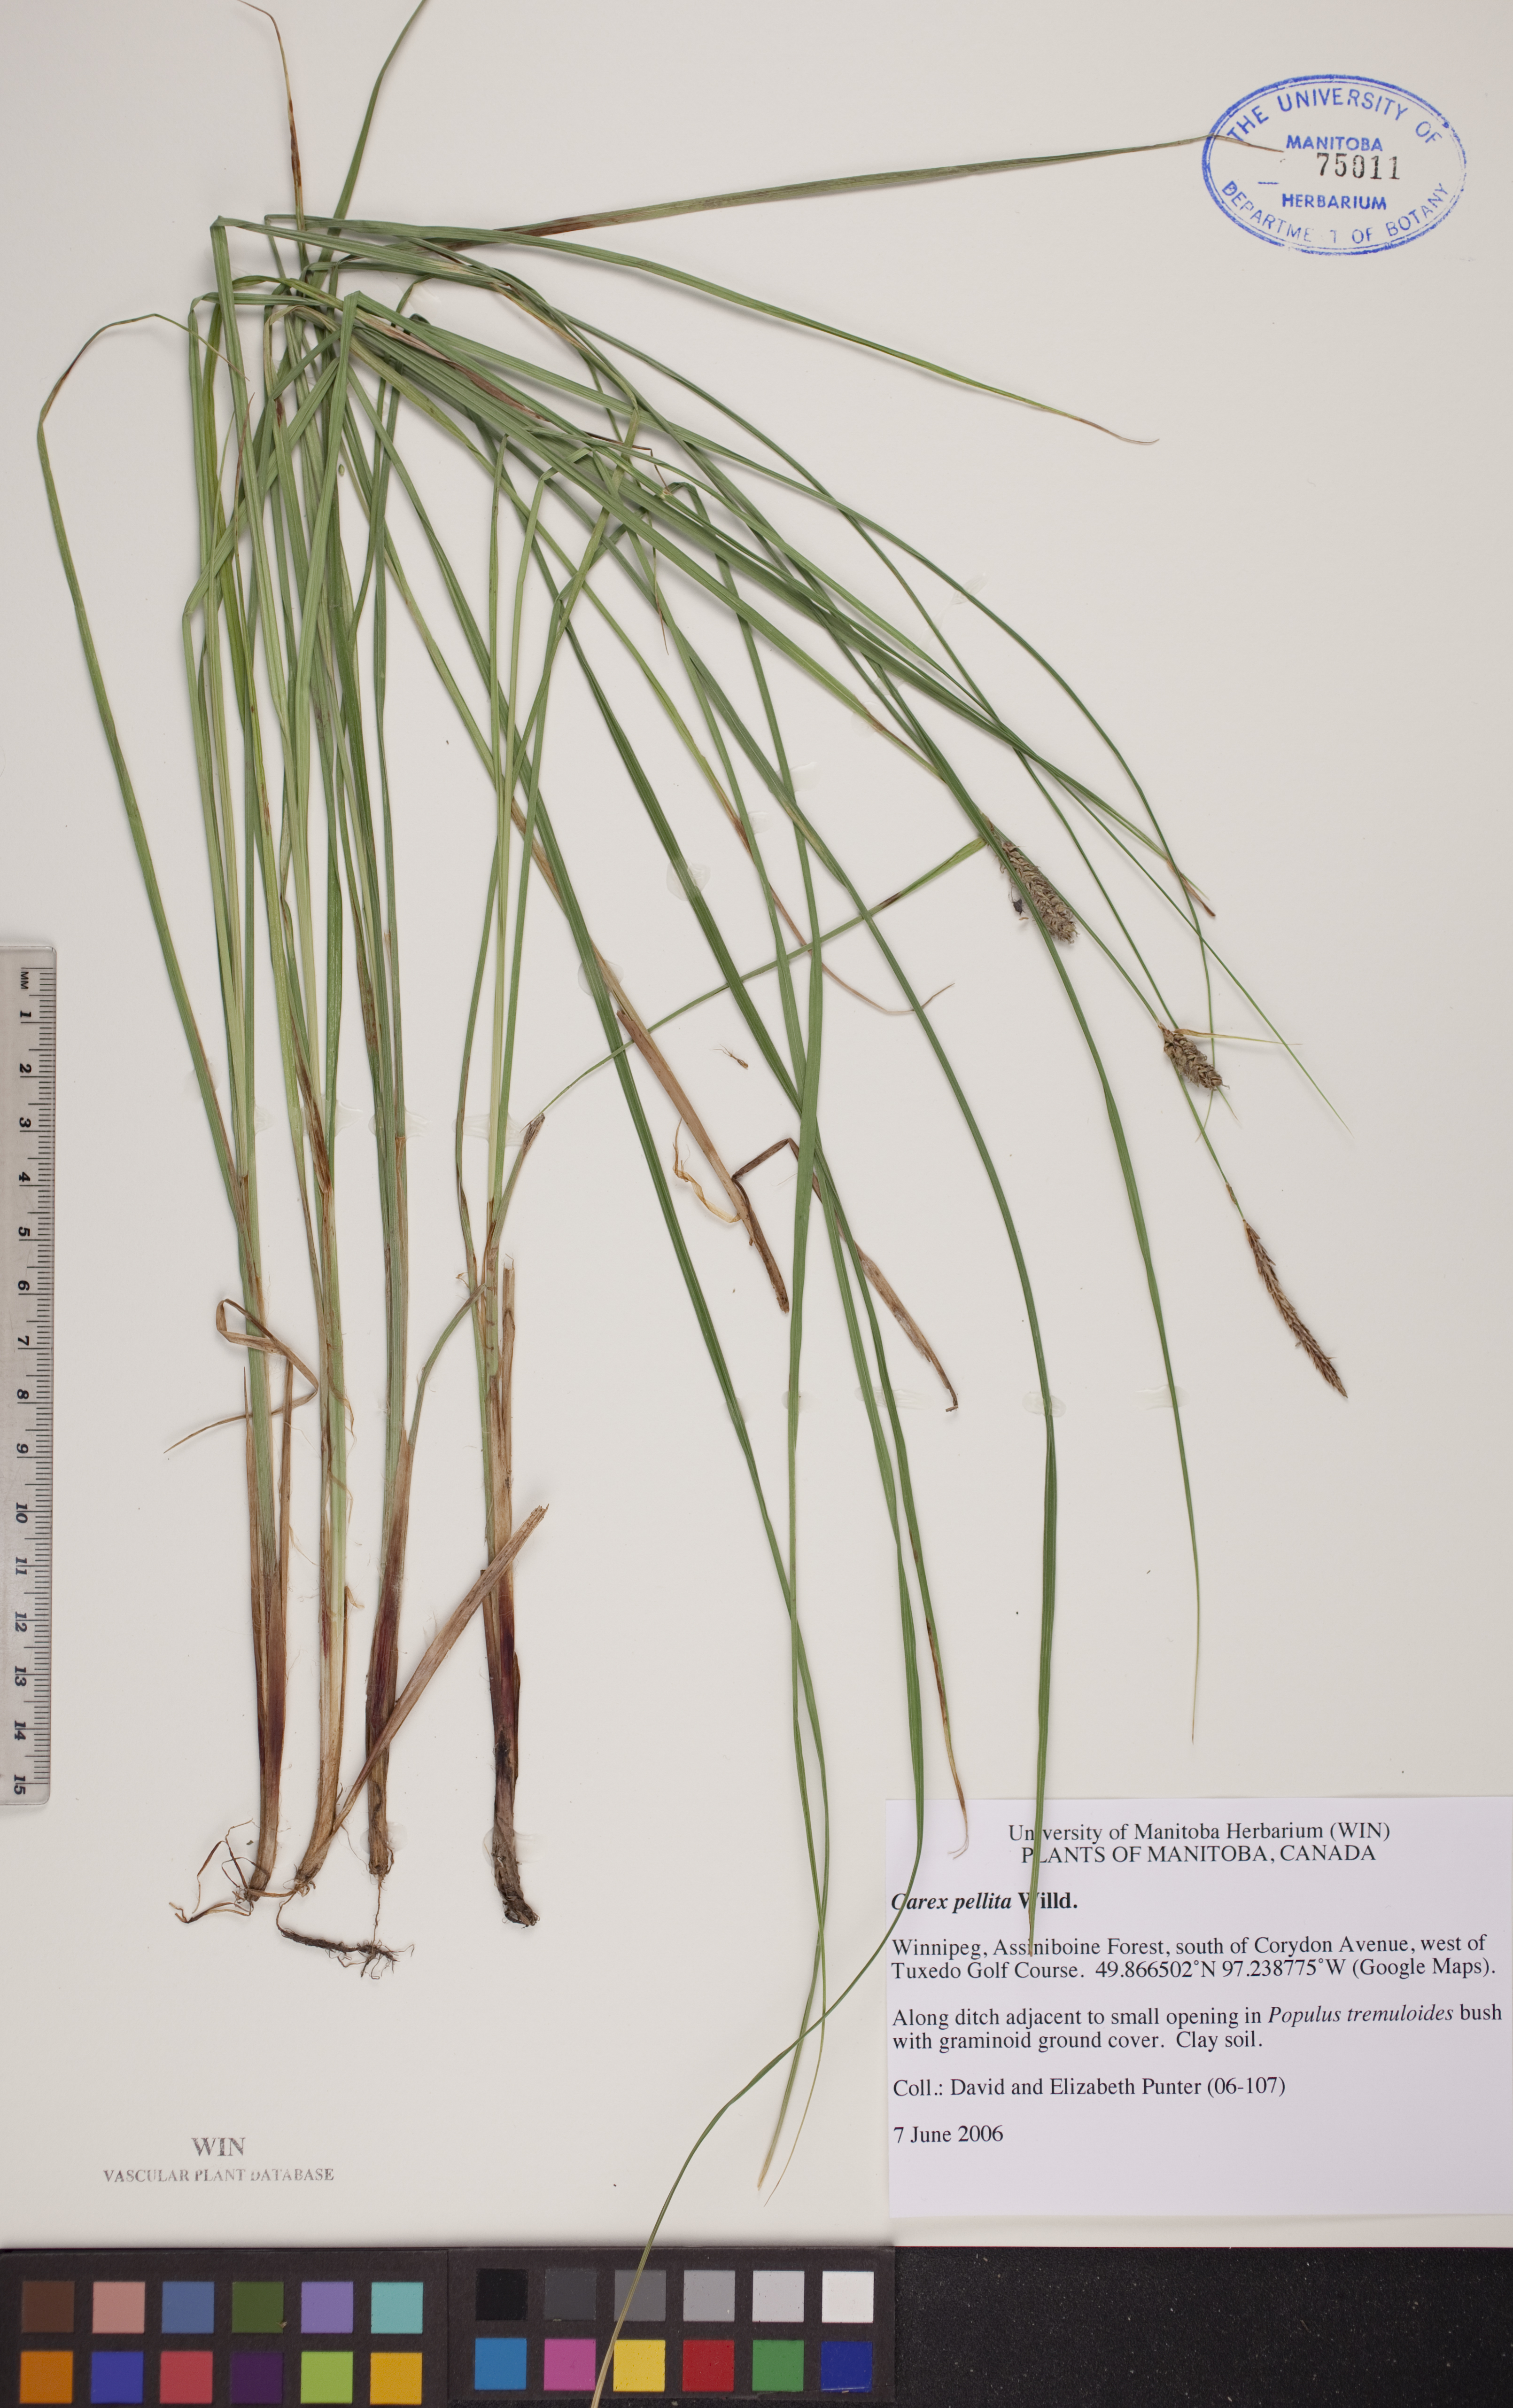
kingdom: Plantae
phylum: Tracheophyta
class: Liliopsida
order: Poales
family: Cyperaceae
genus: Carex
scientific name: Carex pellita
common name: Woolly sedge
